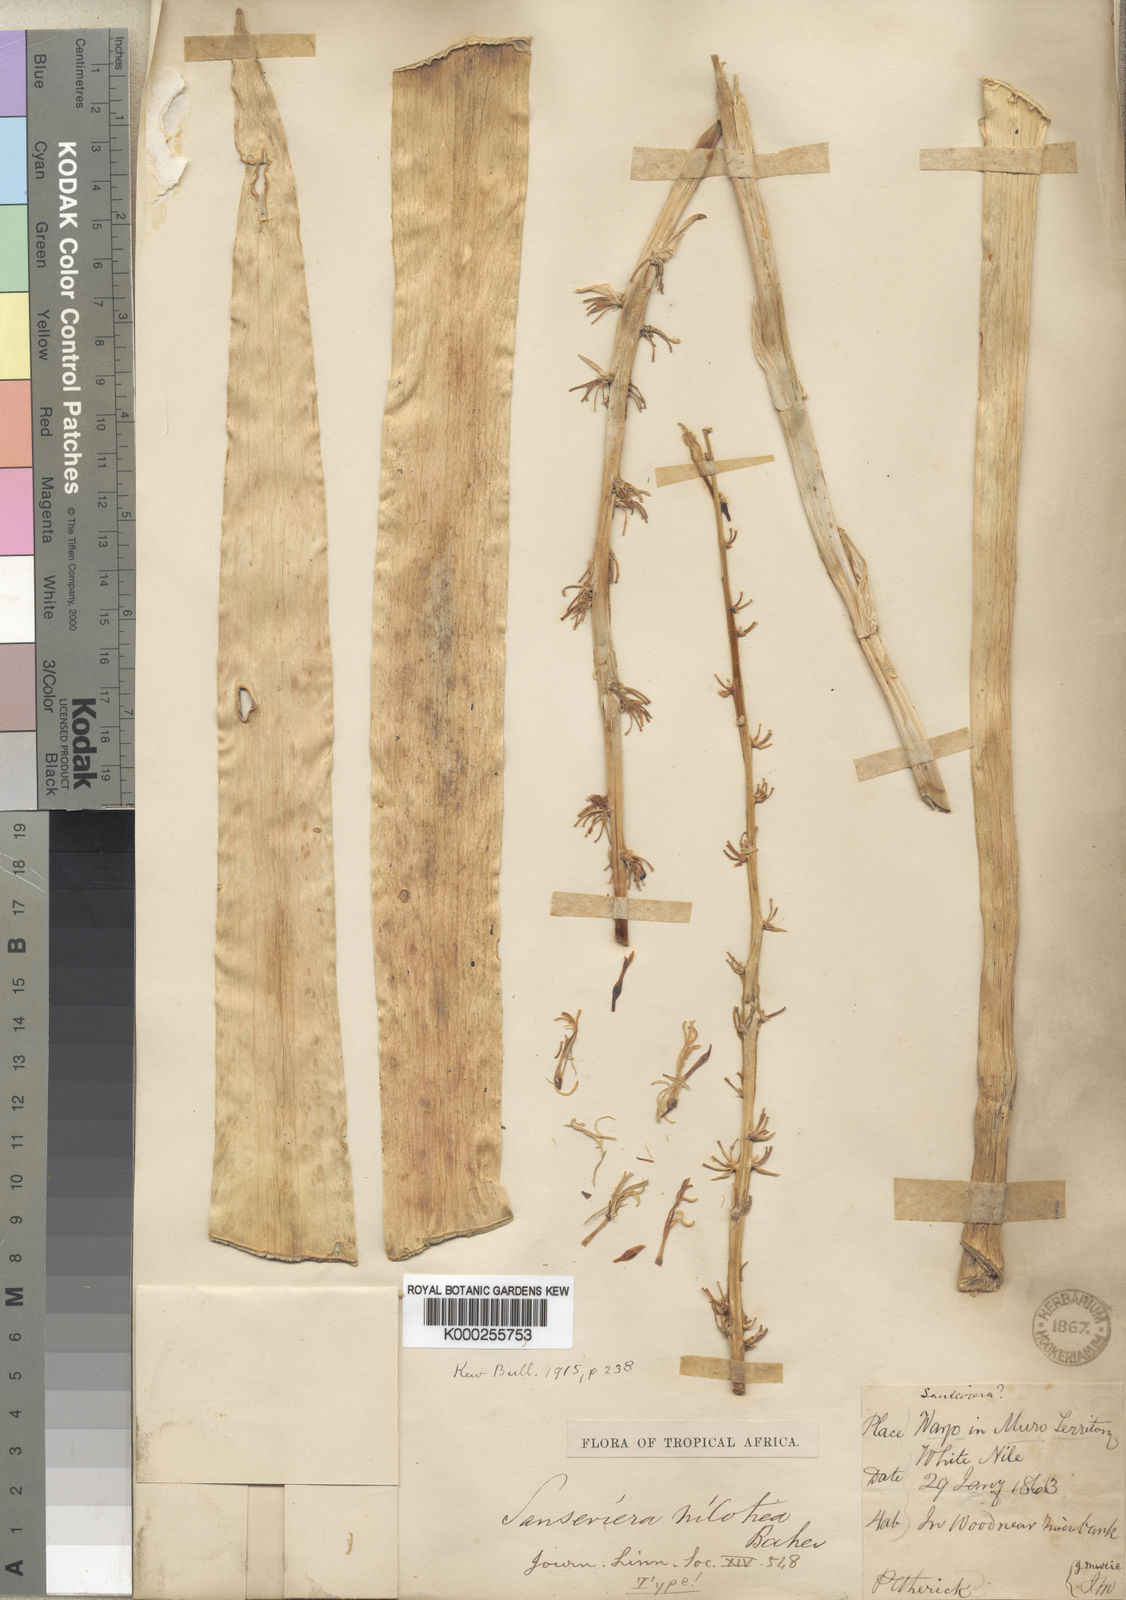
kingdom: Plantae
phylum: Tracheophyta
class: Liliopsida
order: Asparagales
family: Asparagaceae
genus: Dracaena
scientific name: Dracaena nilotica
